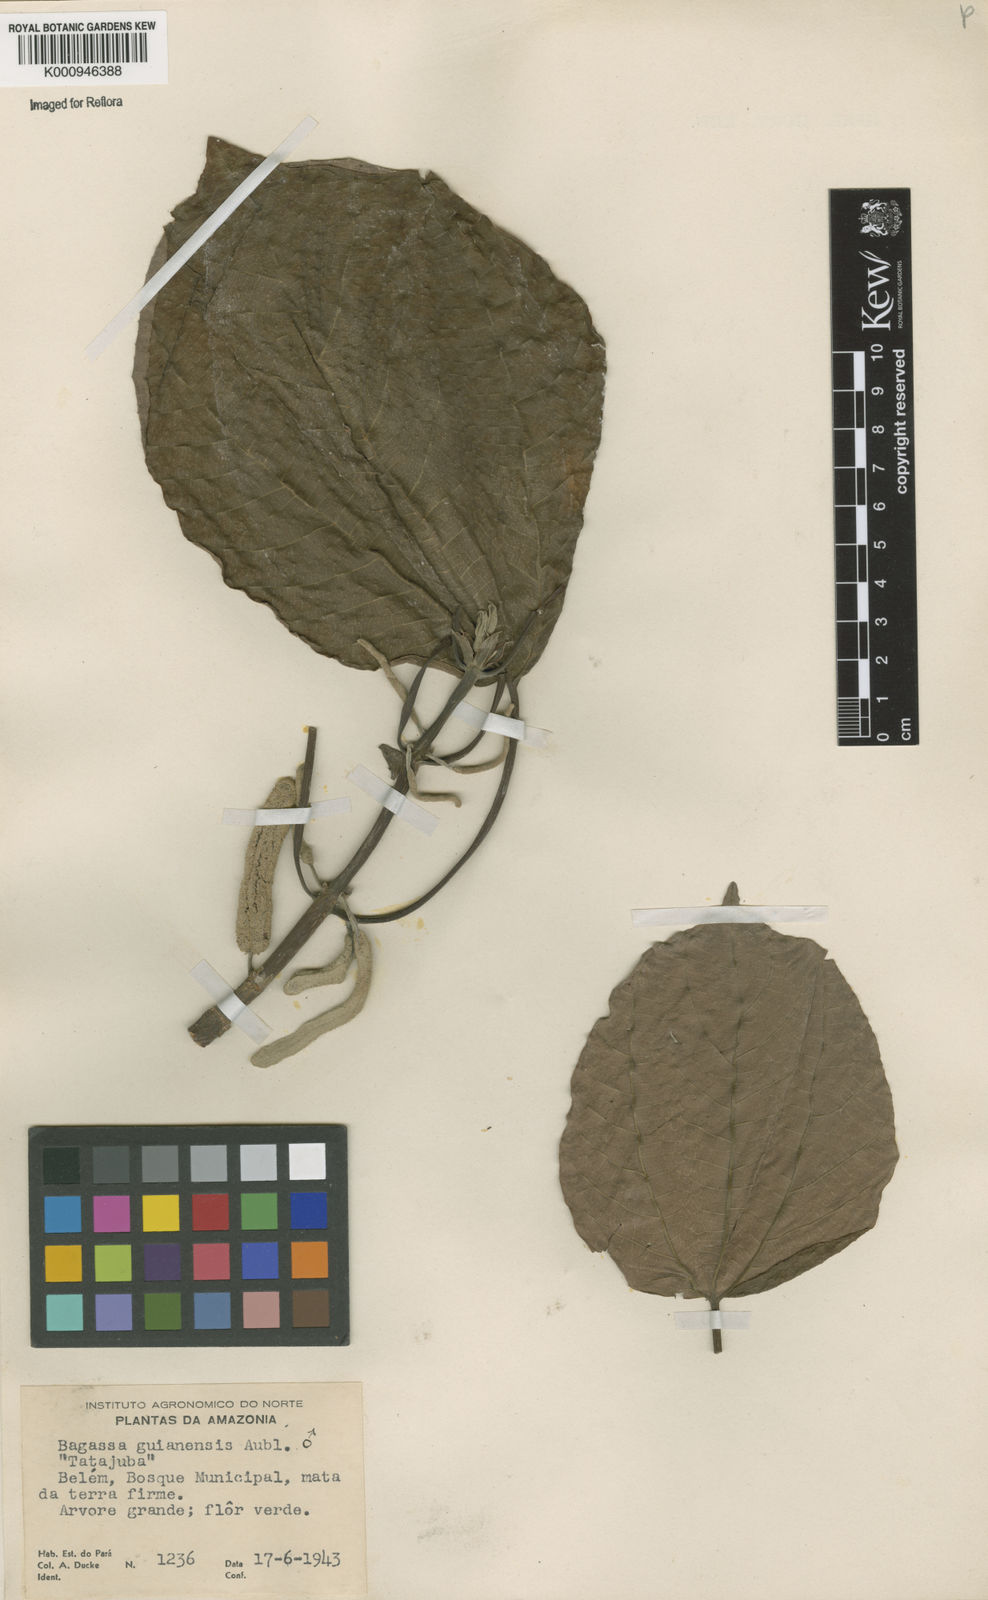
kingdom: Plantae
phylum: Tracheophyta
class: Magnoliopsida
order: Rosales
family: Moraceae
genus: Bagassa
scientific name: Bagassa guianensis
